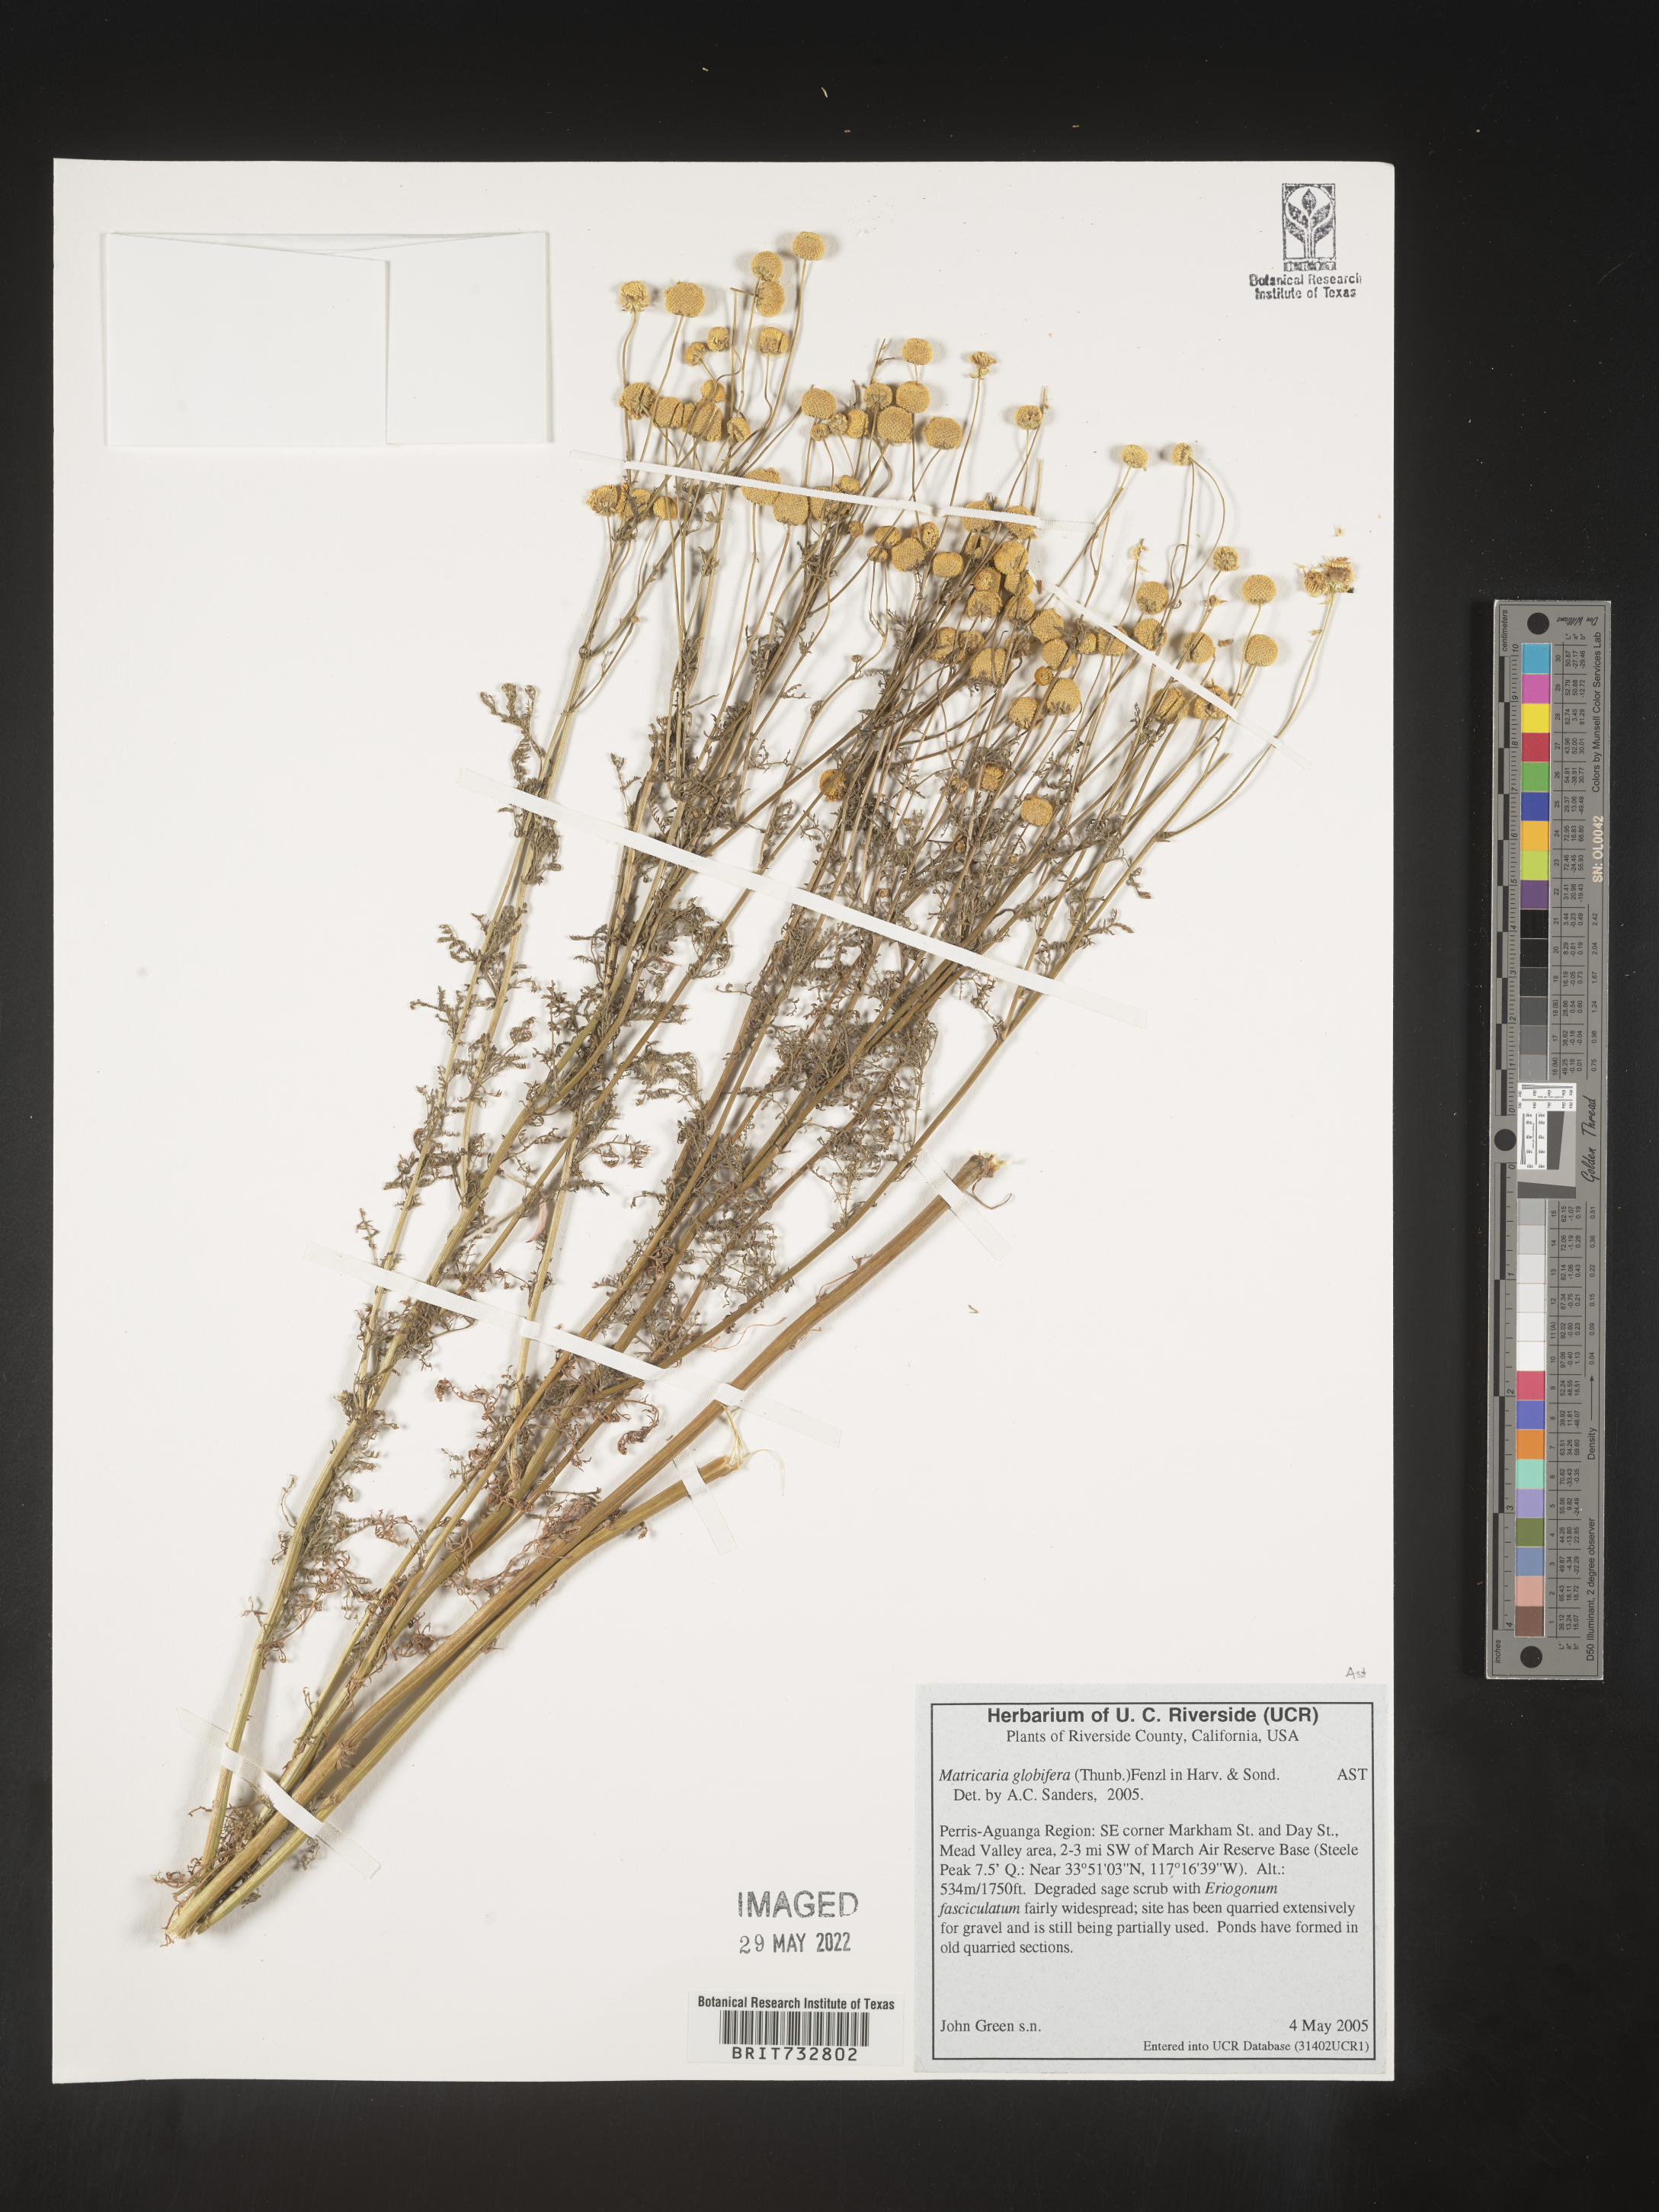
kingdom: Plantae
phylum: Tracheophyta
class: Magnoliopsida
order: Asterales
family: Asteraceae
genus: Oncosiphon
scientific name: Oncosiphon pilulifer
